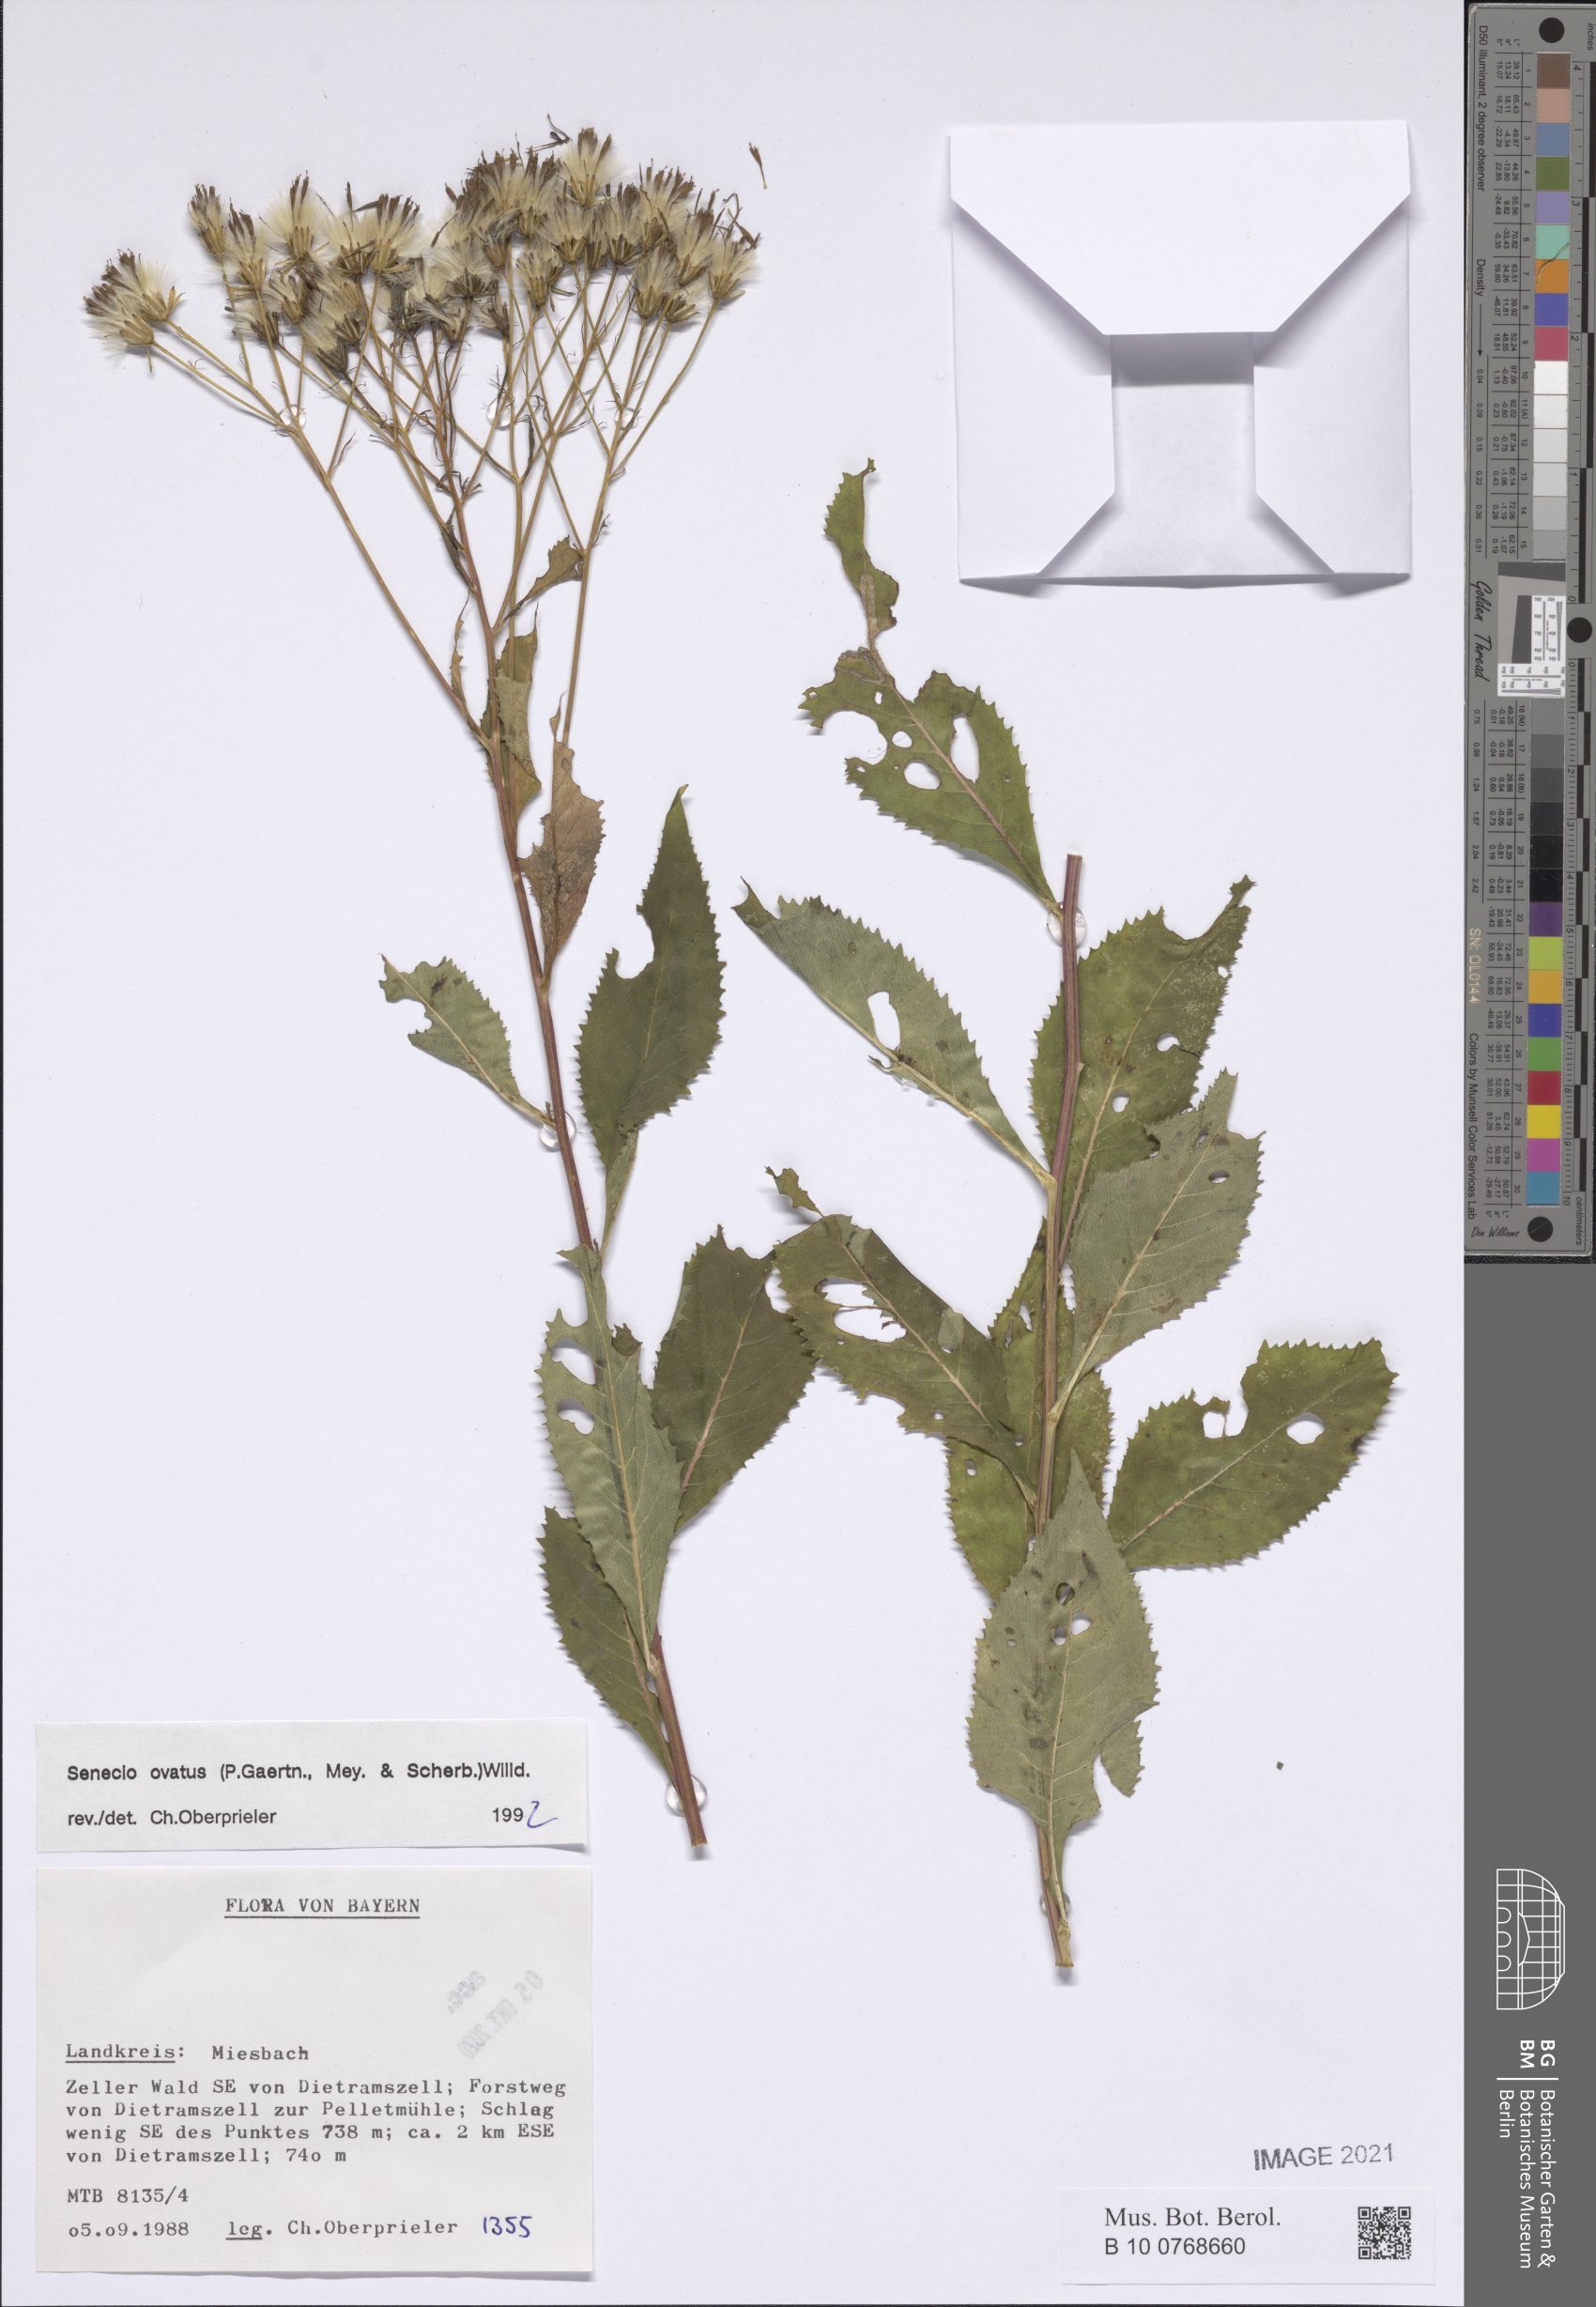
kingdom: Plantae
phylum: Tracheophyta
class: Magnoliopsida
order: Asterales
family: Asteraceae
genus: Senecio
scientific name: Senecio ovatus
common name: Wood ragwort
